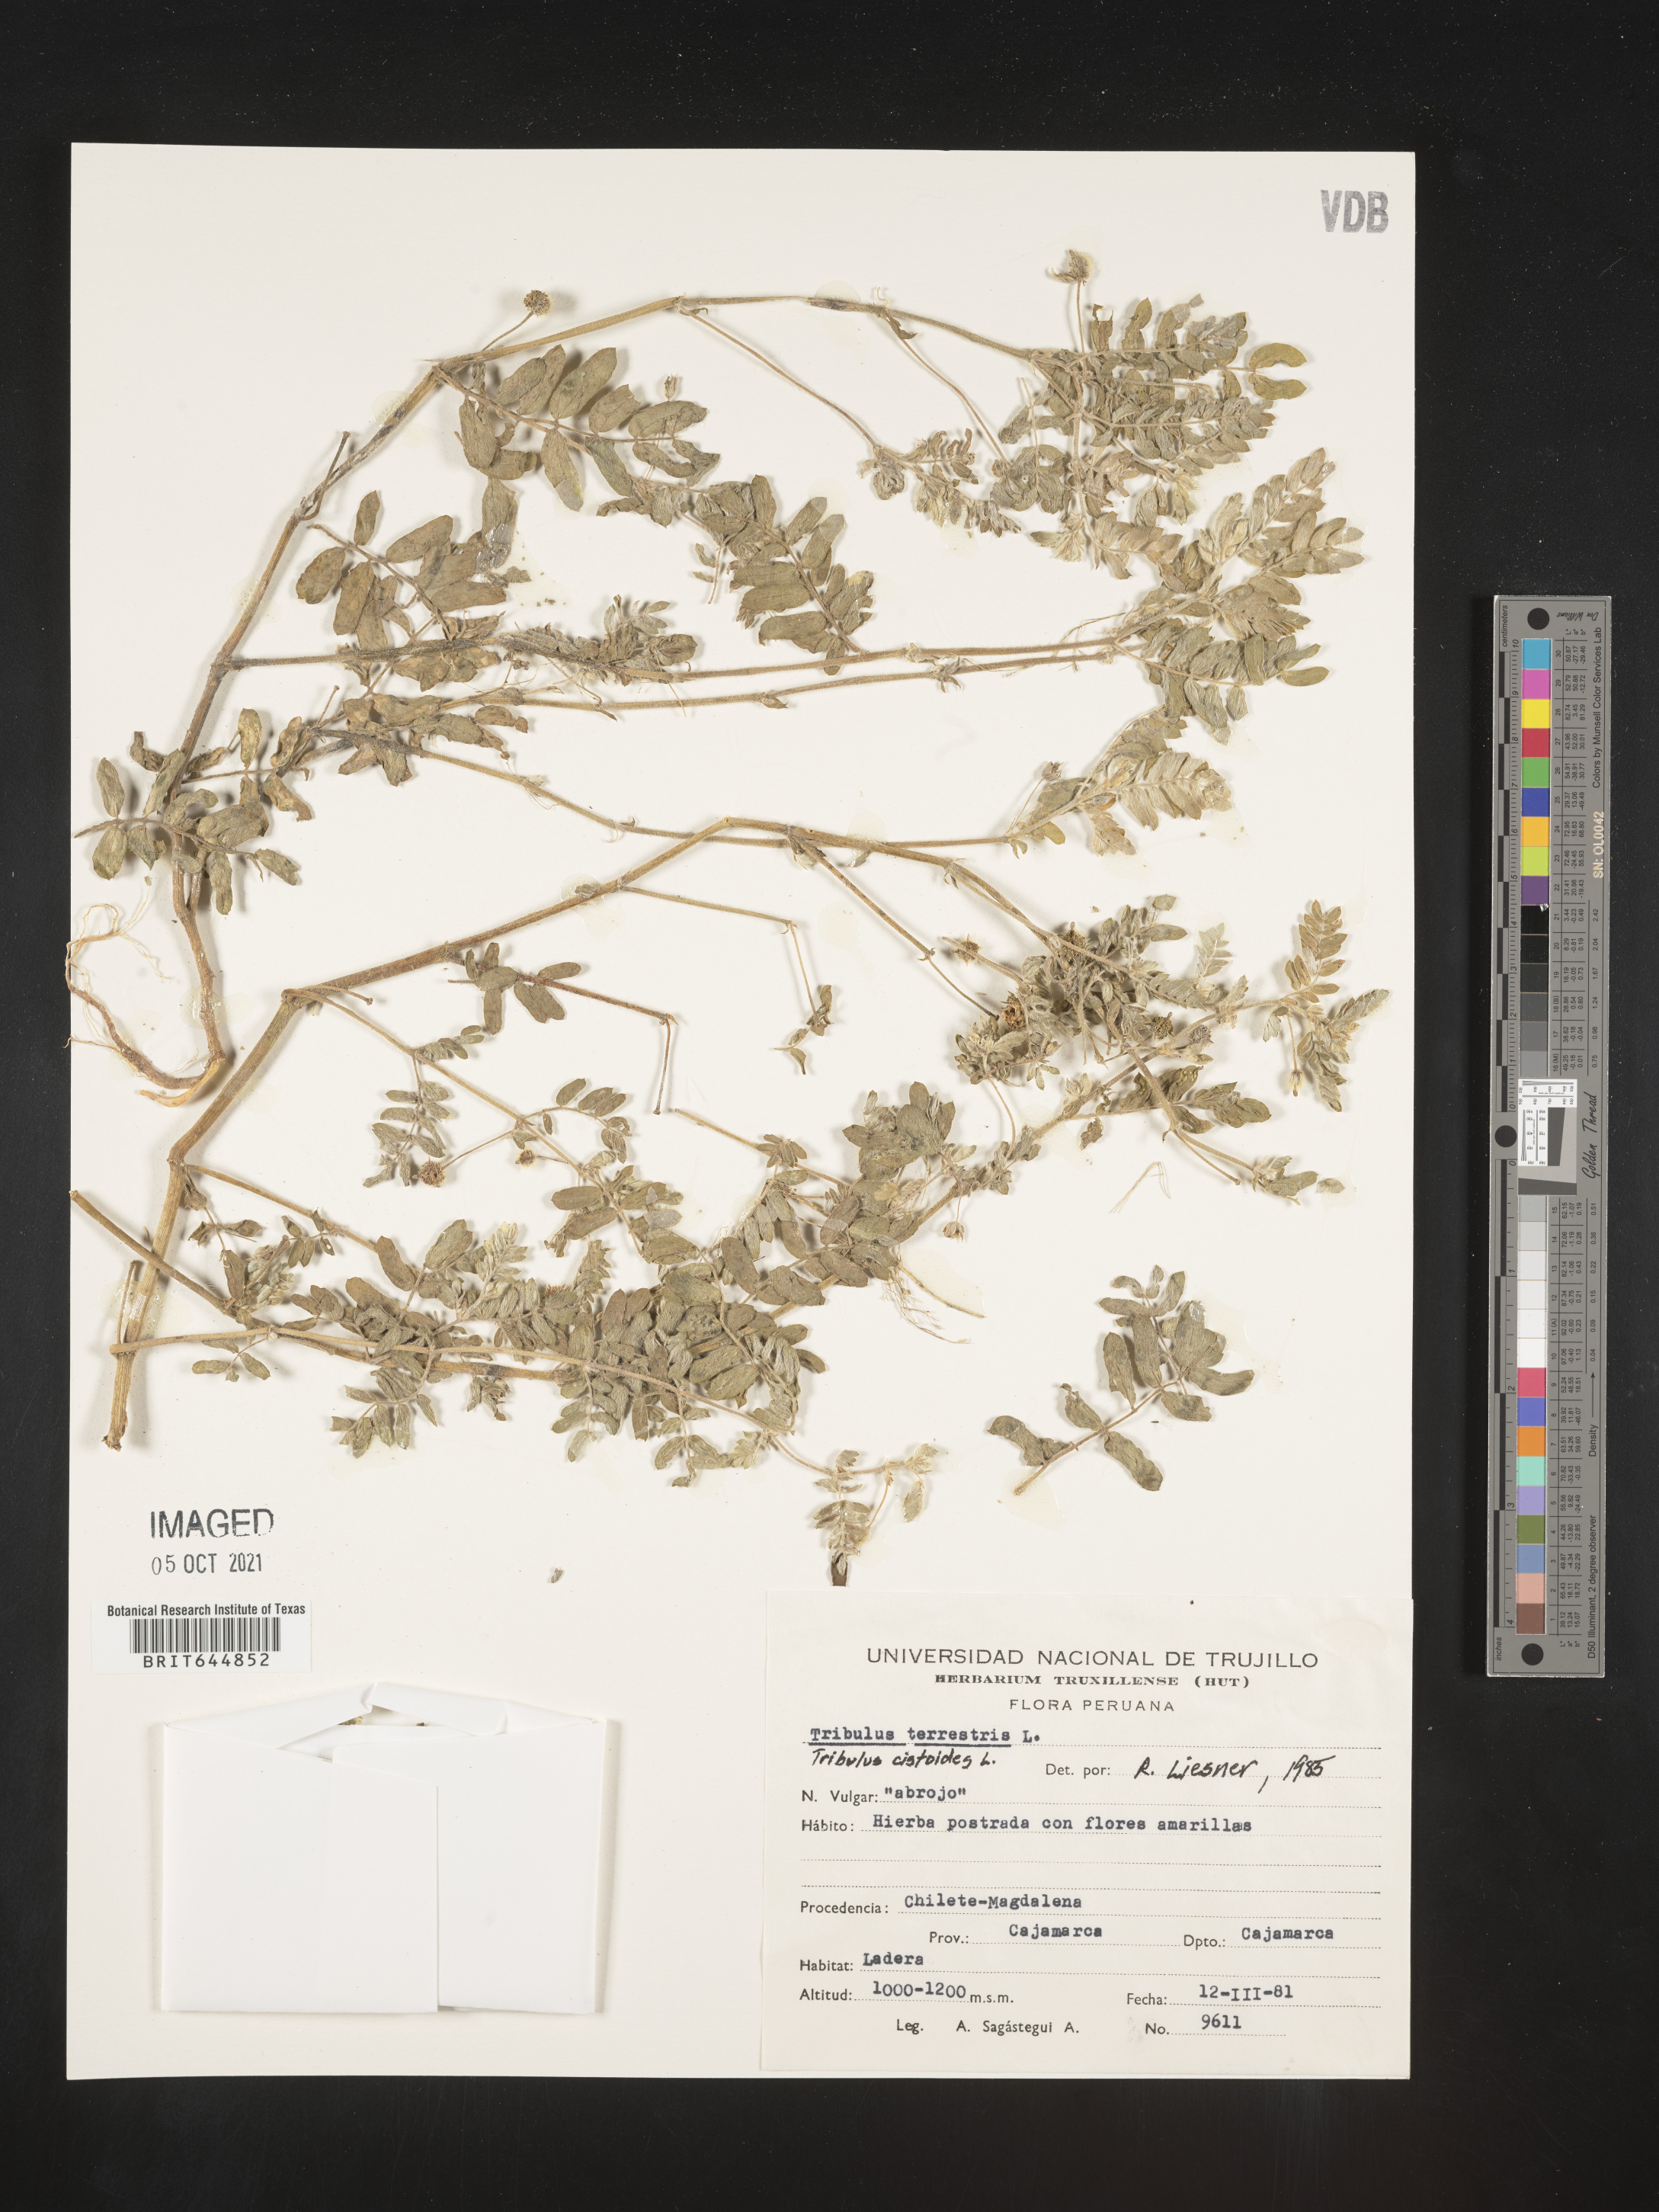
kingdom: Plantae
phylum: Tracheophyta
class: Magnoliopsida
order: Zygophyllales
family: Zygophyllaceae
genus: Tribulus
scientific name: Tribulus
